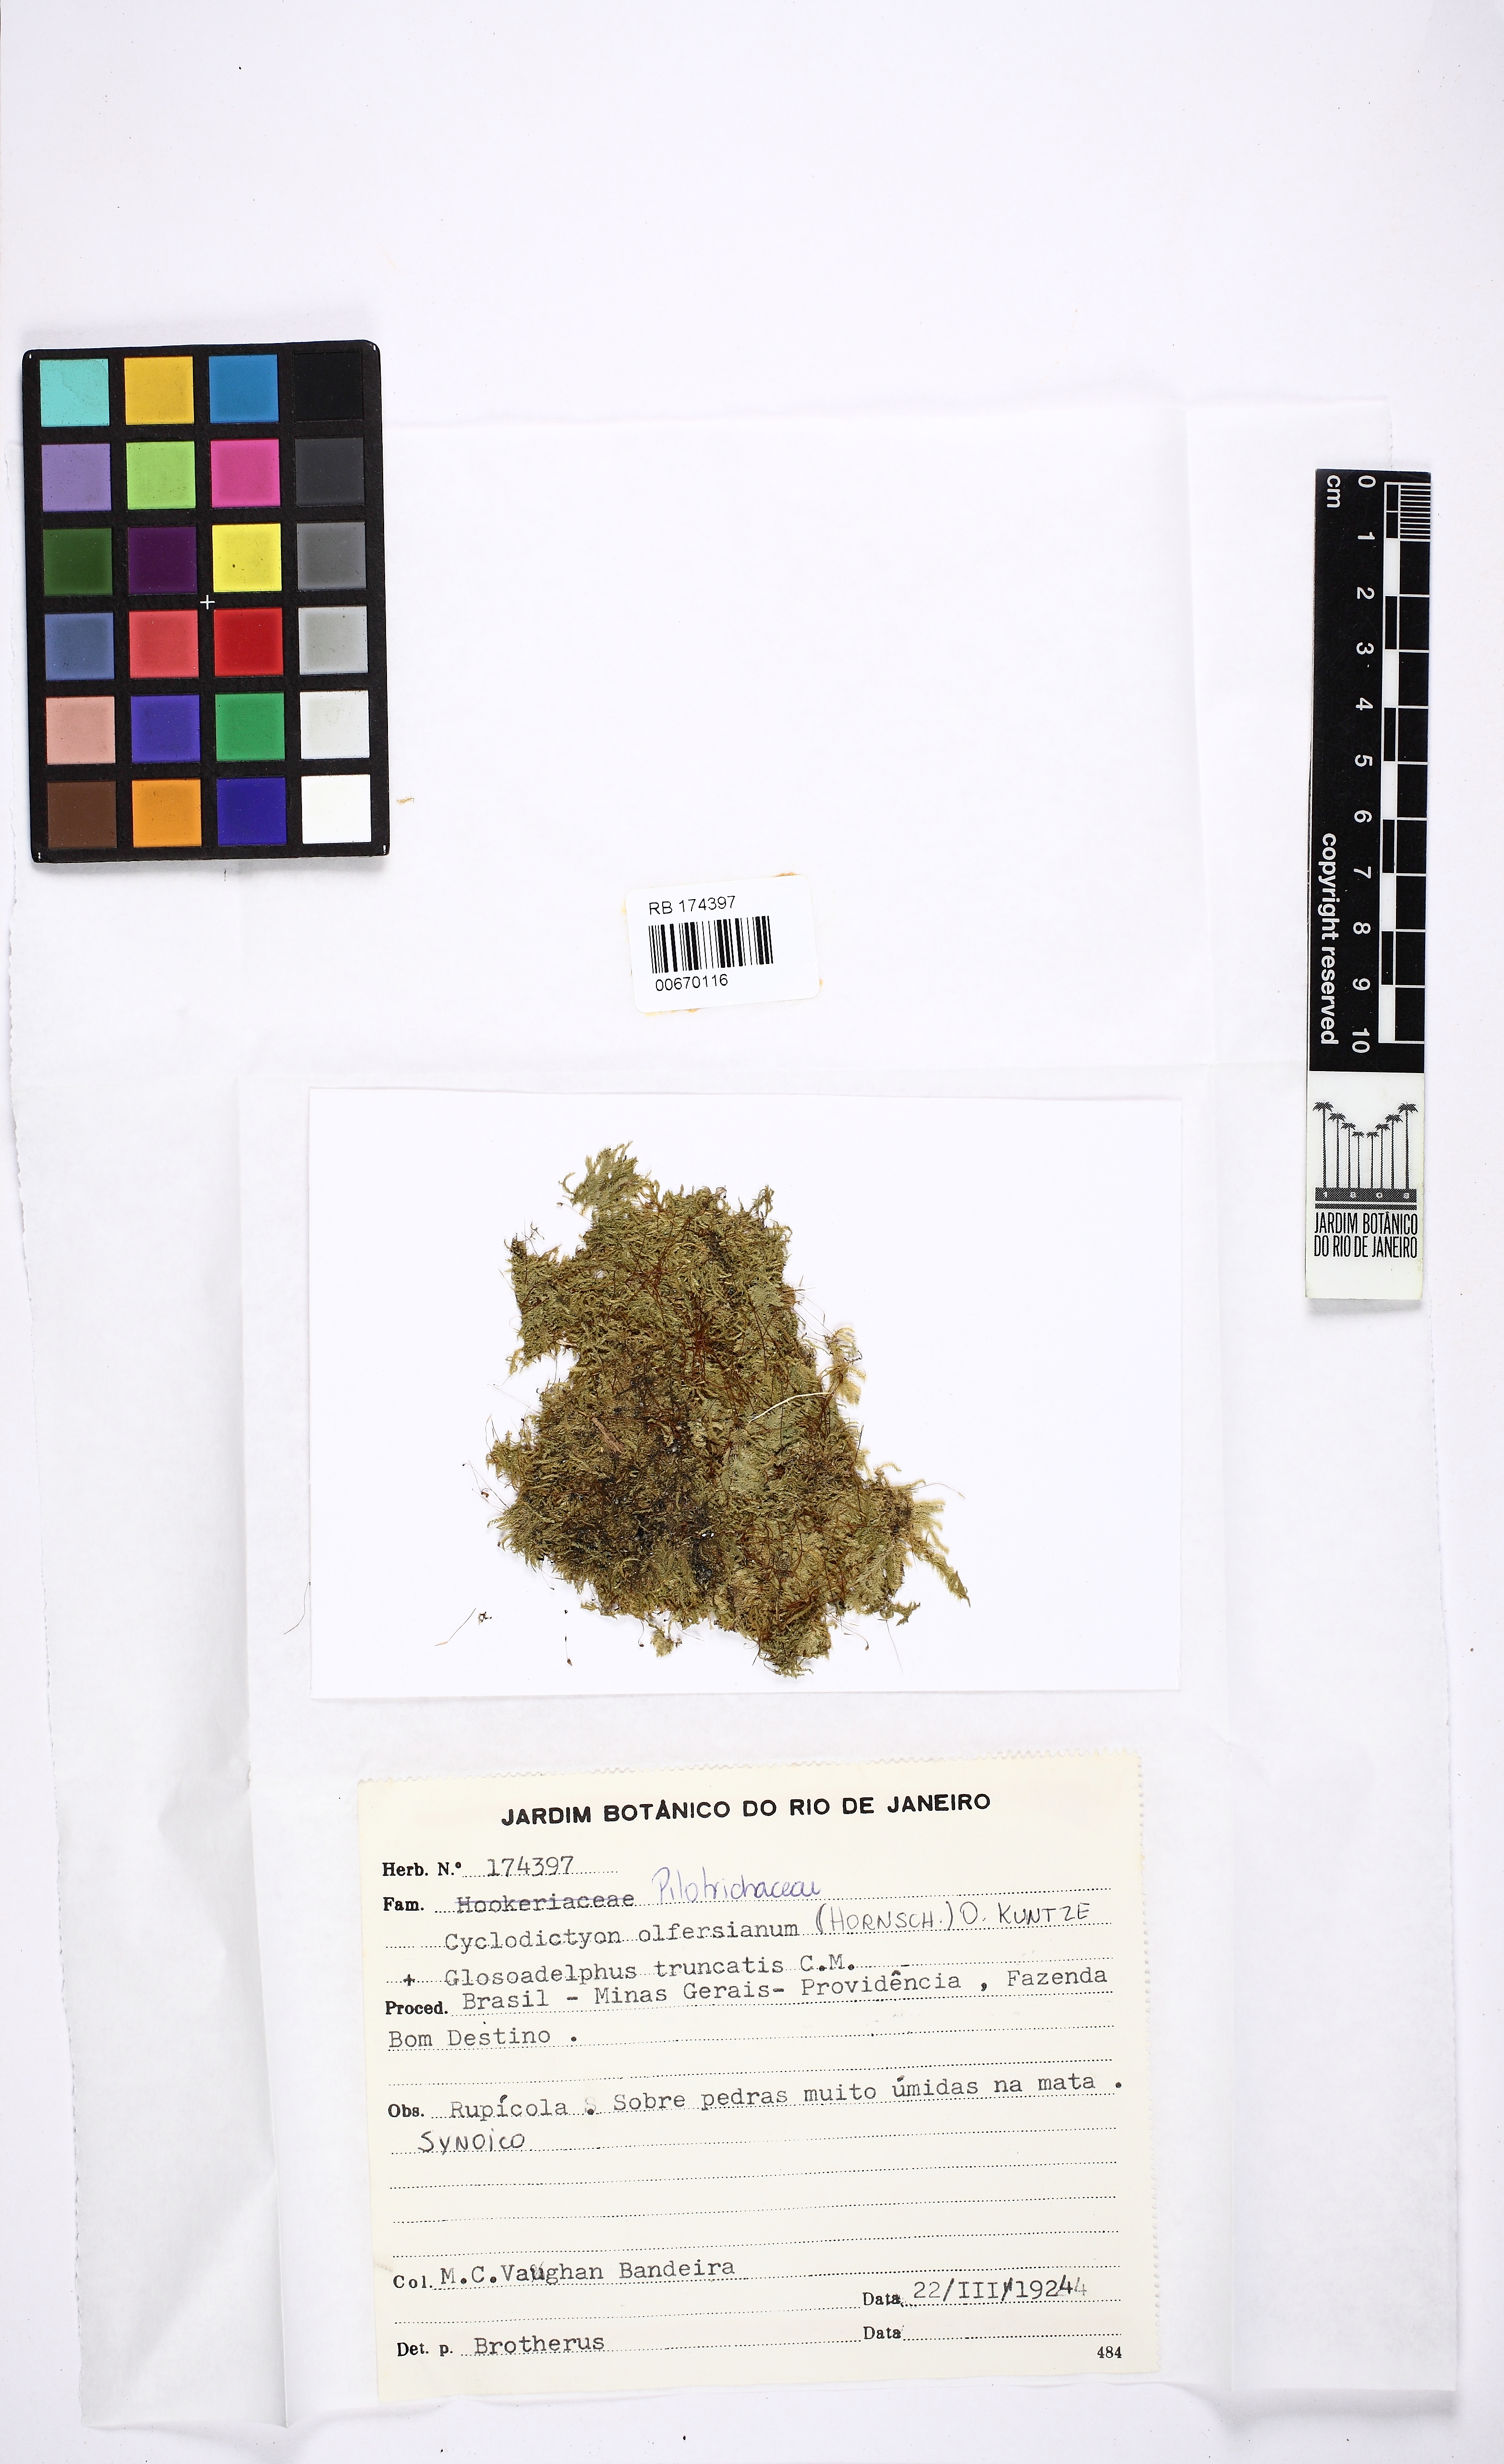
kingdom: Plantae
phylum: Bryophyta
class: Bryopsida
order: Hookeriales
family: Pilotrichaceae
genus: Cyclodictyon
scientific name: Cyclodictyon olfersianum
